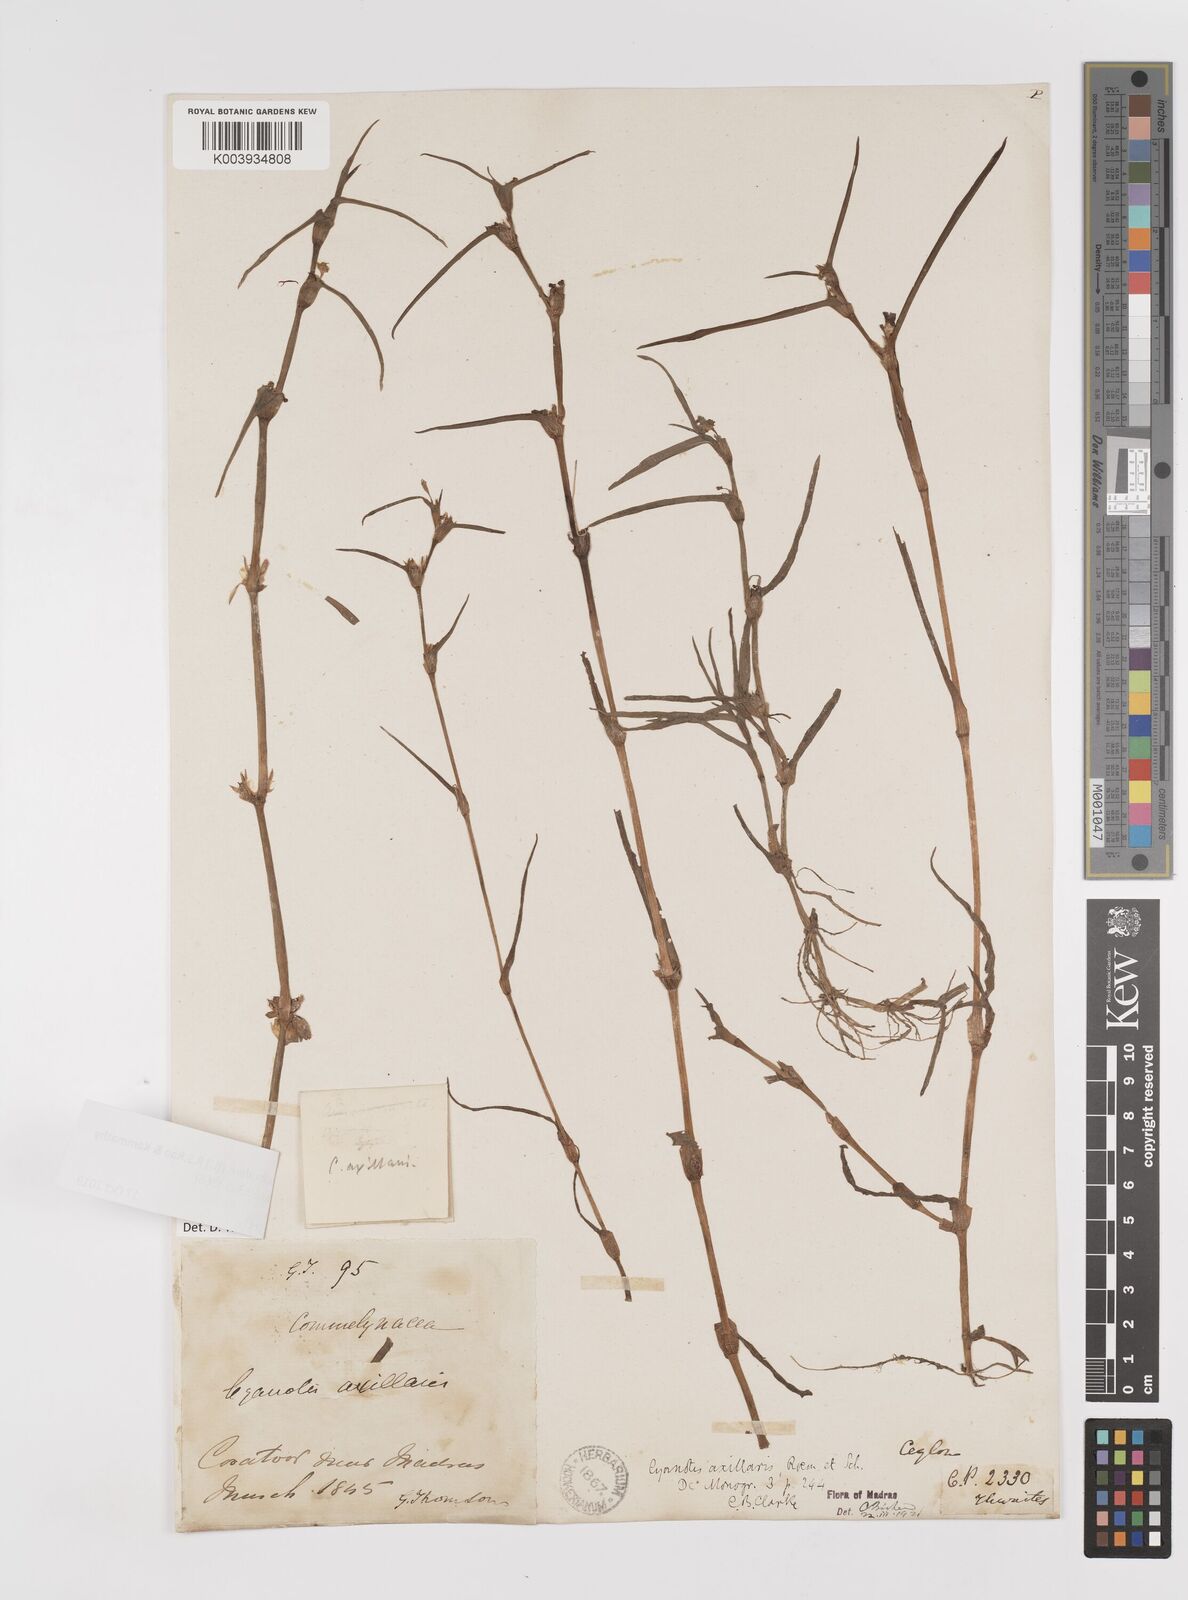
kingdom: Plantae
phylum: Tracheophyta
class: Liliopsida
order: Commelinales
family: Commelinaceae
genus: Cyanotis
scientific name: Cyanotis axillaris
